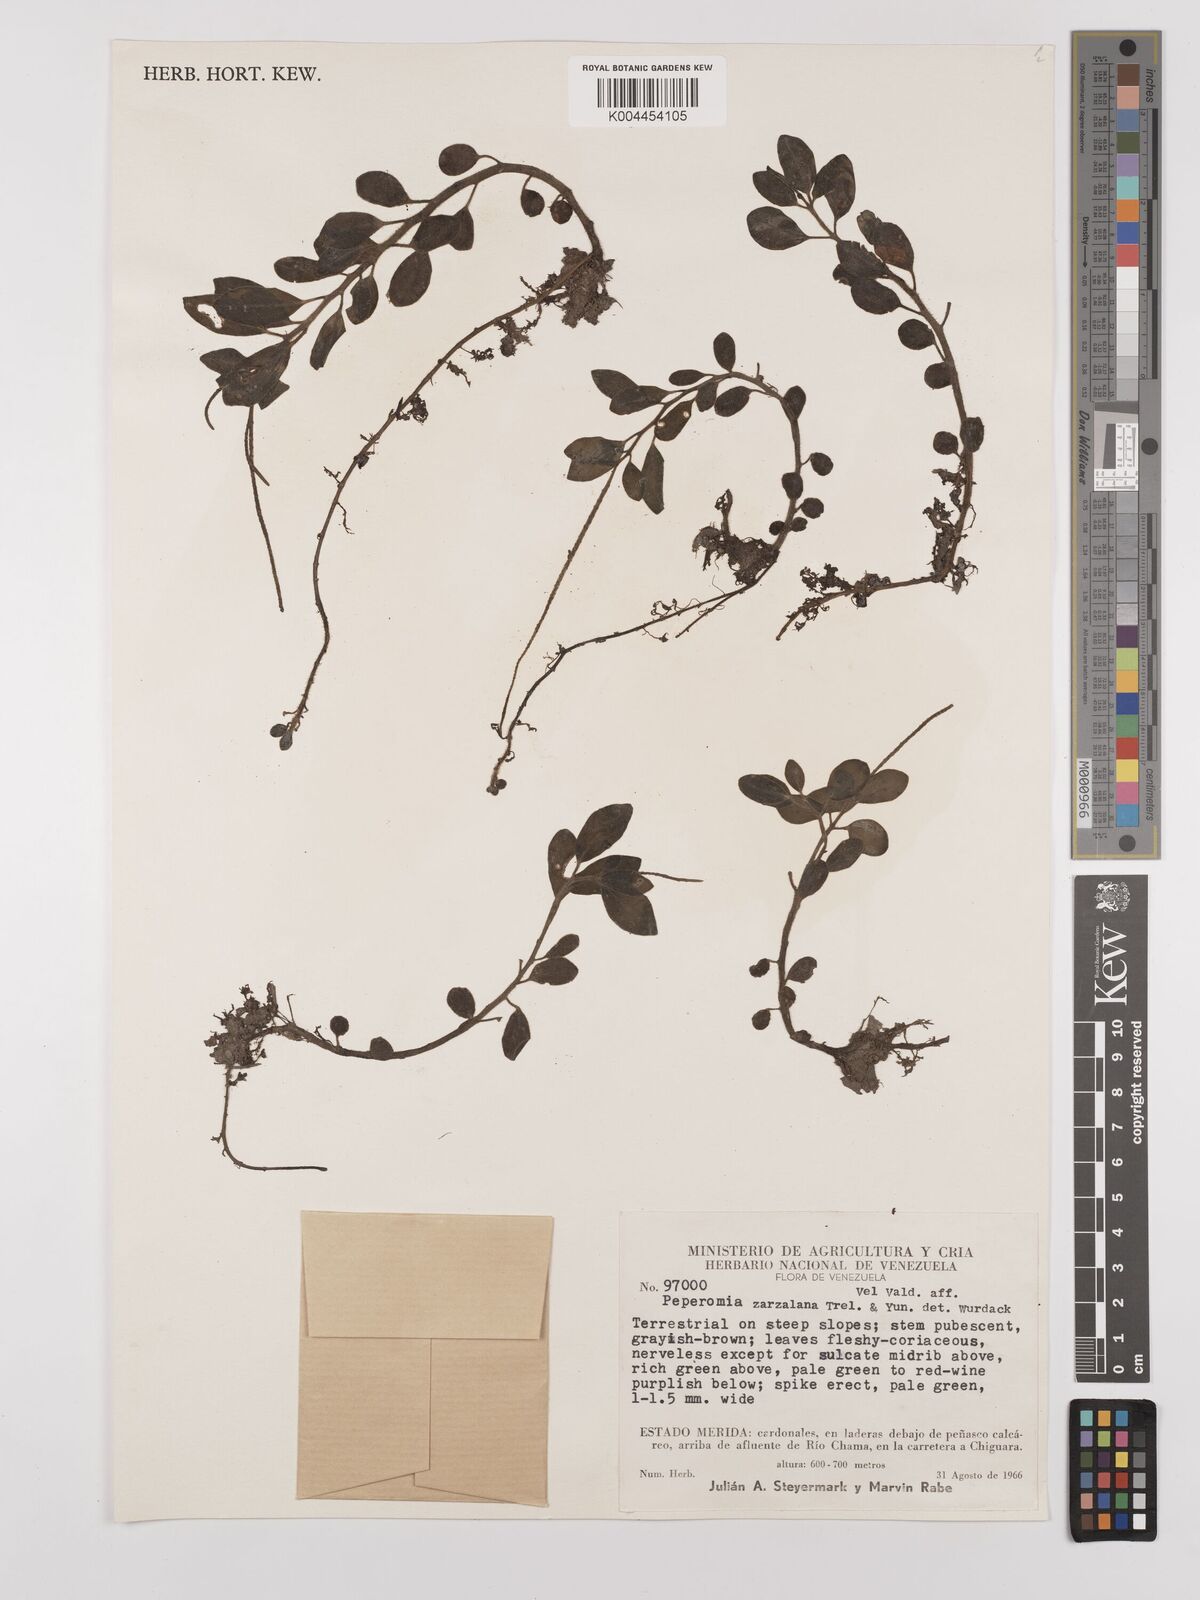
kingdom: Plantae
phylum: Tracheophyta
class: Magnoliopsida
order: Piperales
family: Piperaceae
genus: Peperomia
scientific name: Peperomia zarzalana
